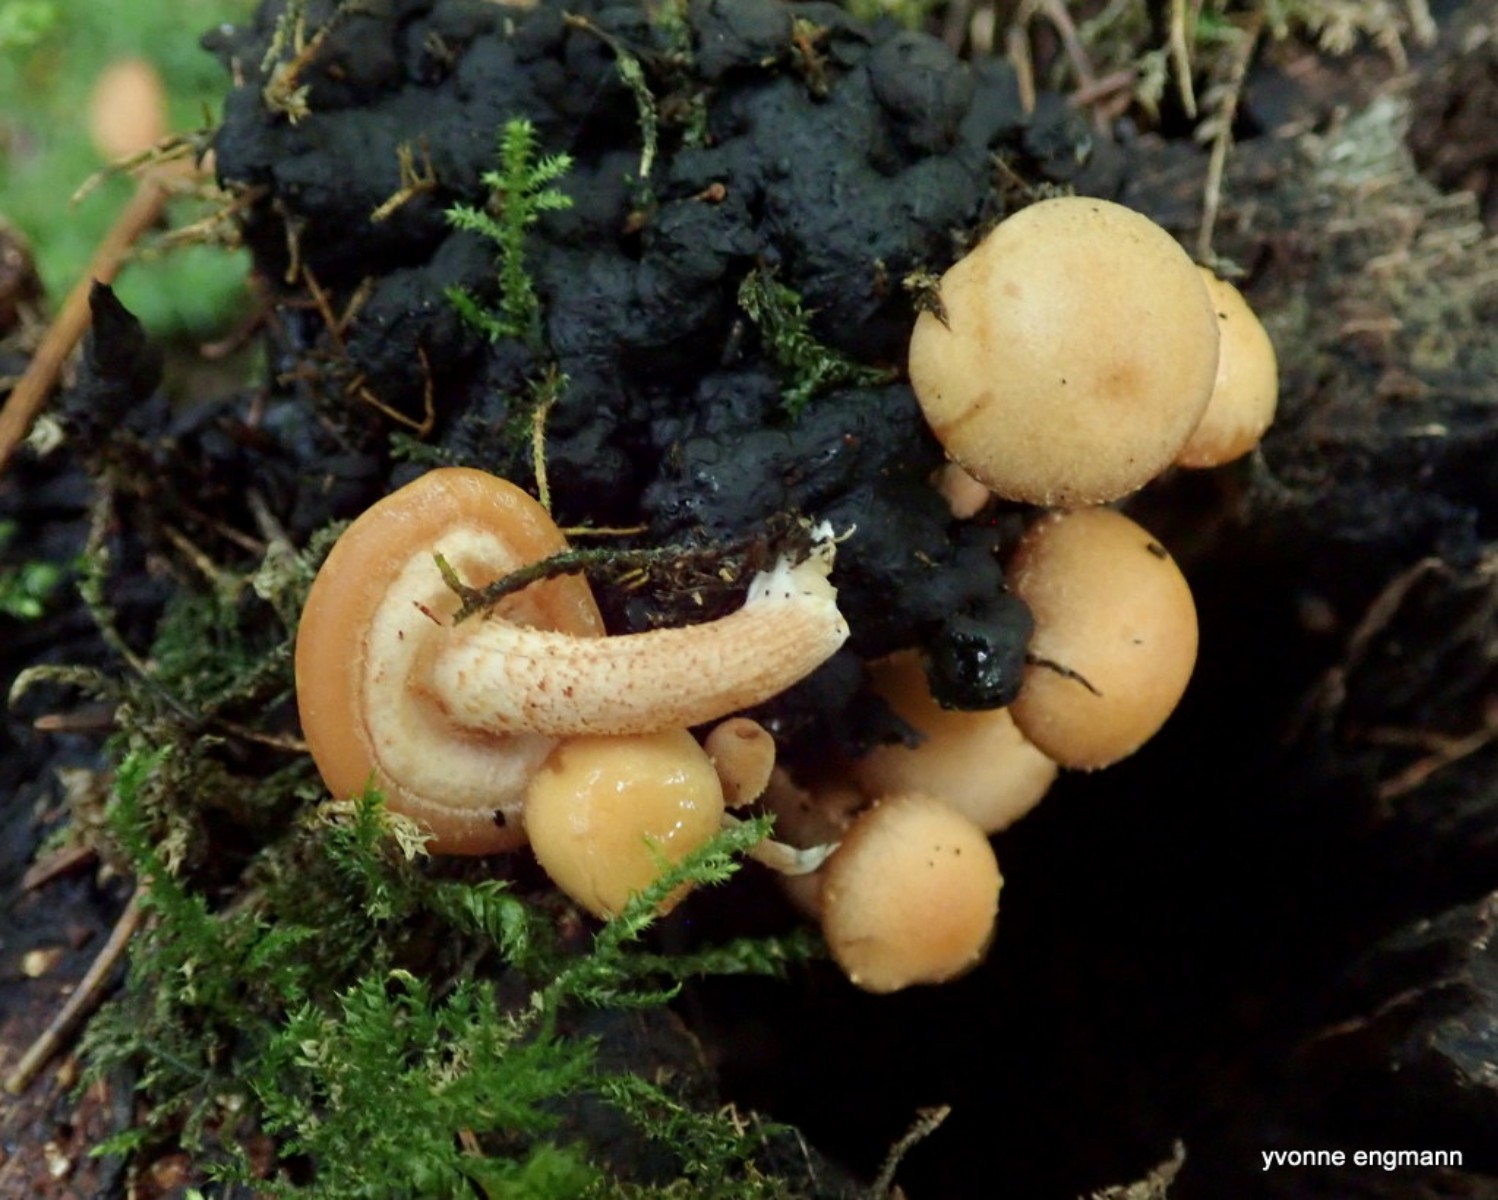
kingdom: Fungi
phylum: Basidiomycota
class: Agaricomycetes
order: Agaricales
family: Strophariaceae
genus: Kuehneromyces
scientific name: Kuehneromyces mutabilis
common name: foranderlig skælhat
